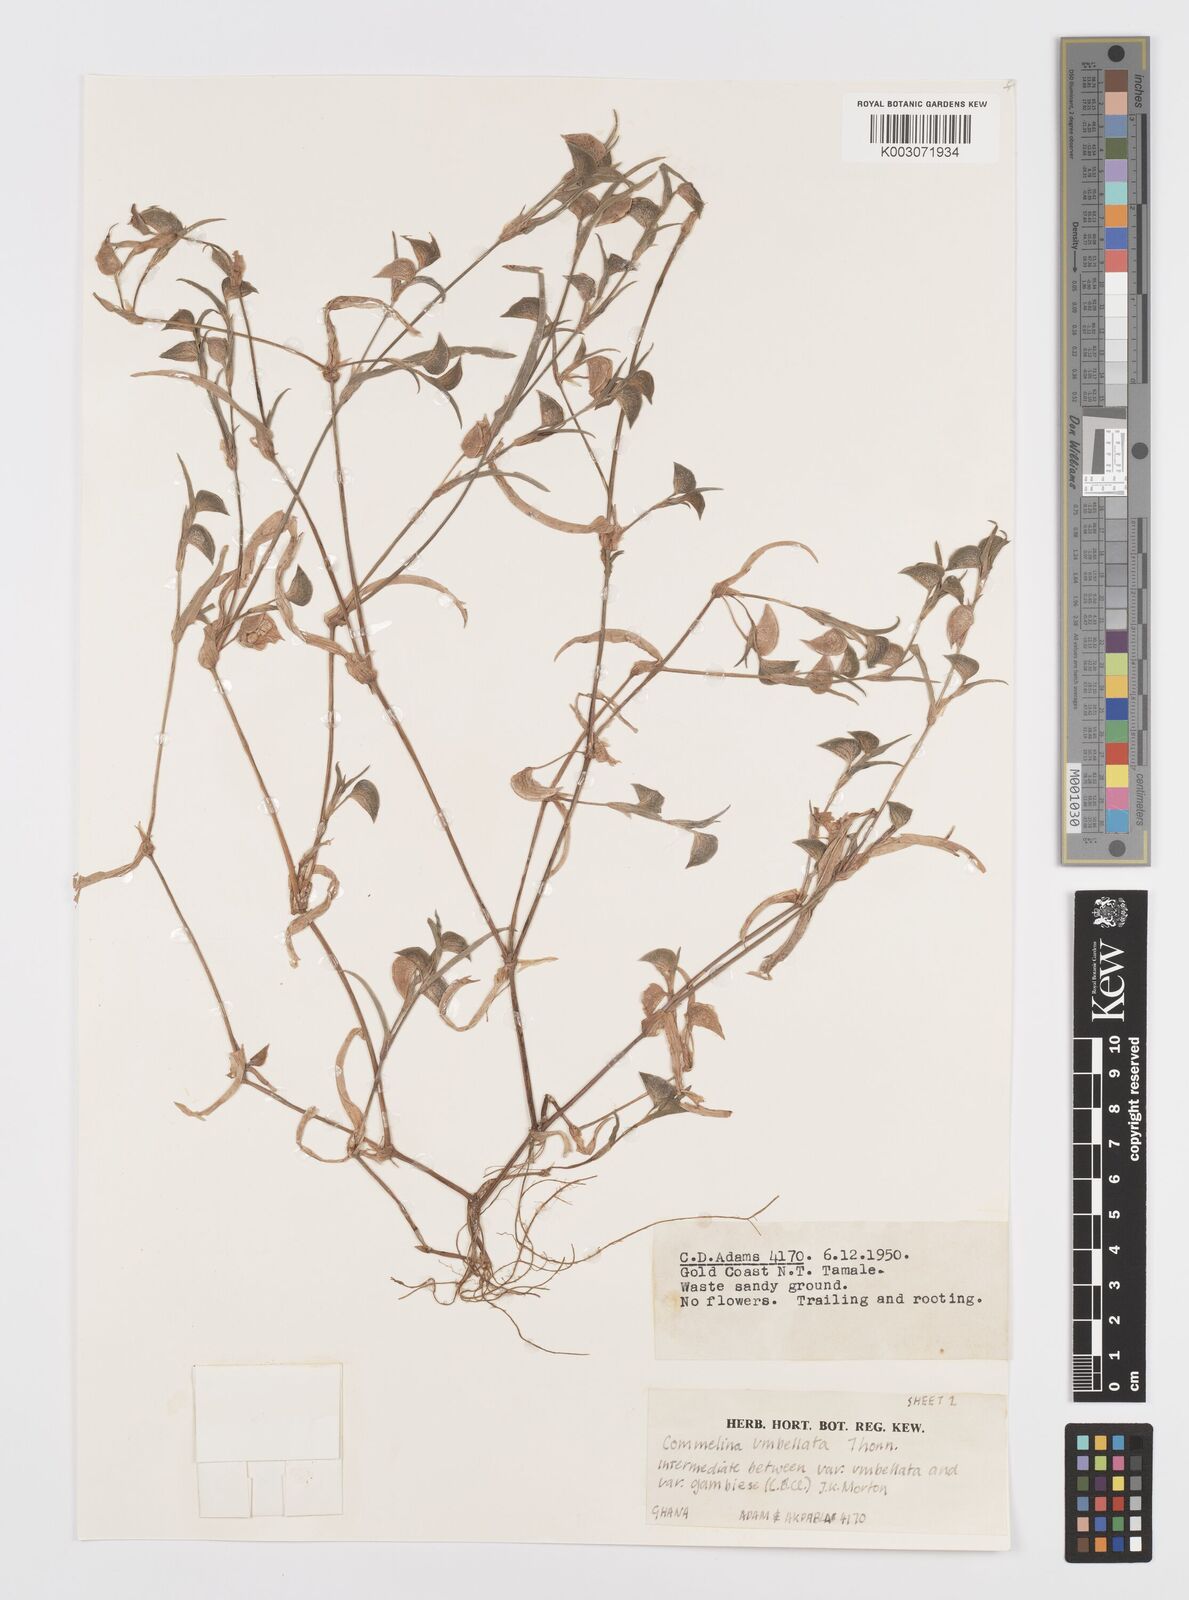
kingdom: Plantae
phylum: Tracheophyta
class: Liliopsida
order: Commelinales
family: Commelinaceae
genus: Commelina
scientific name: Commelina umbellata
